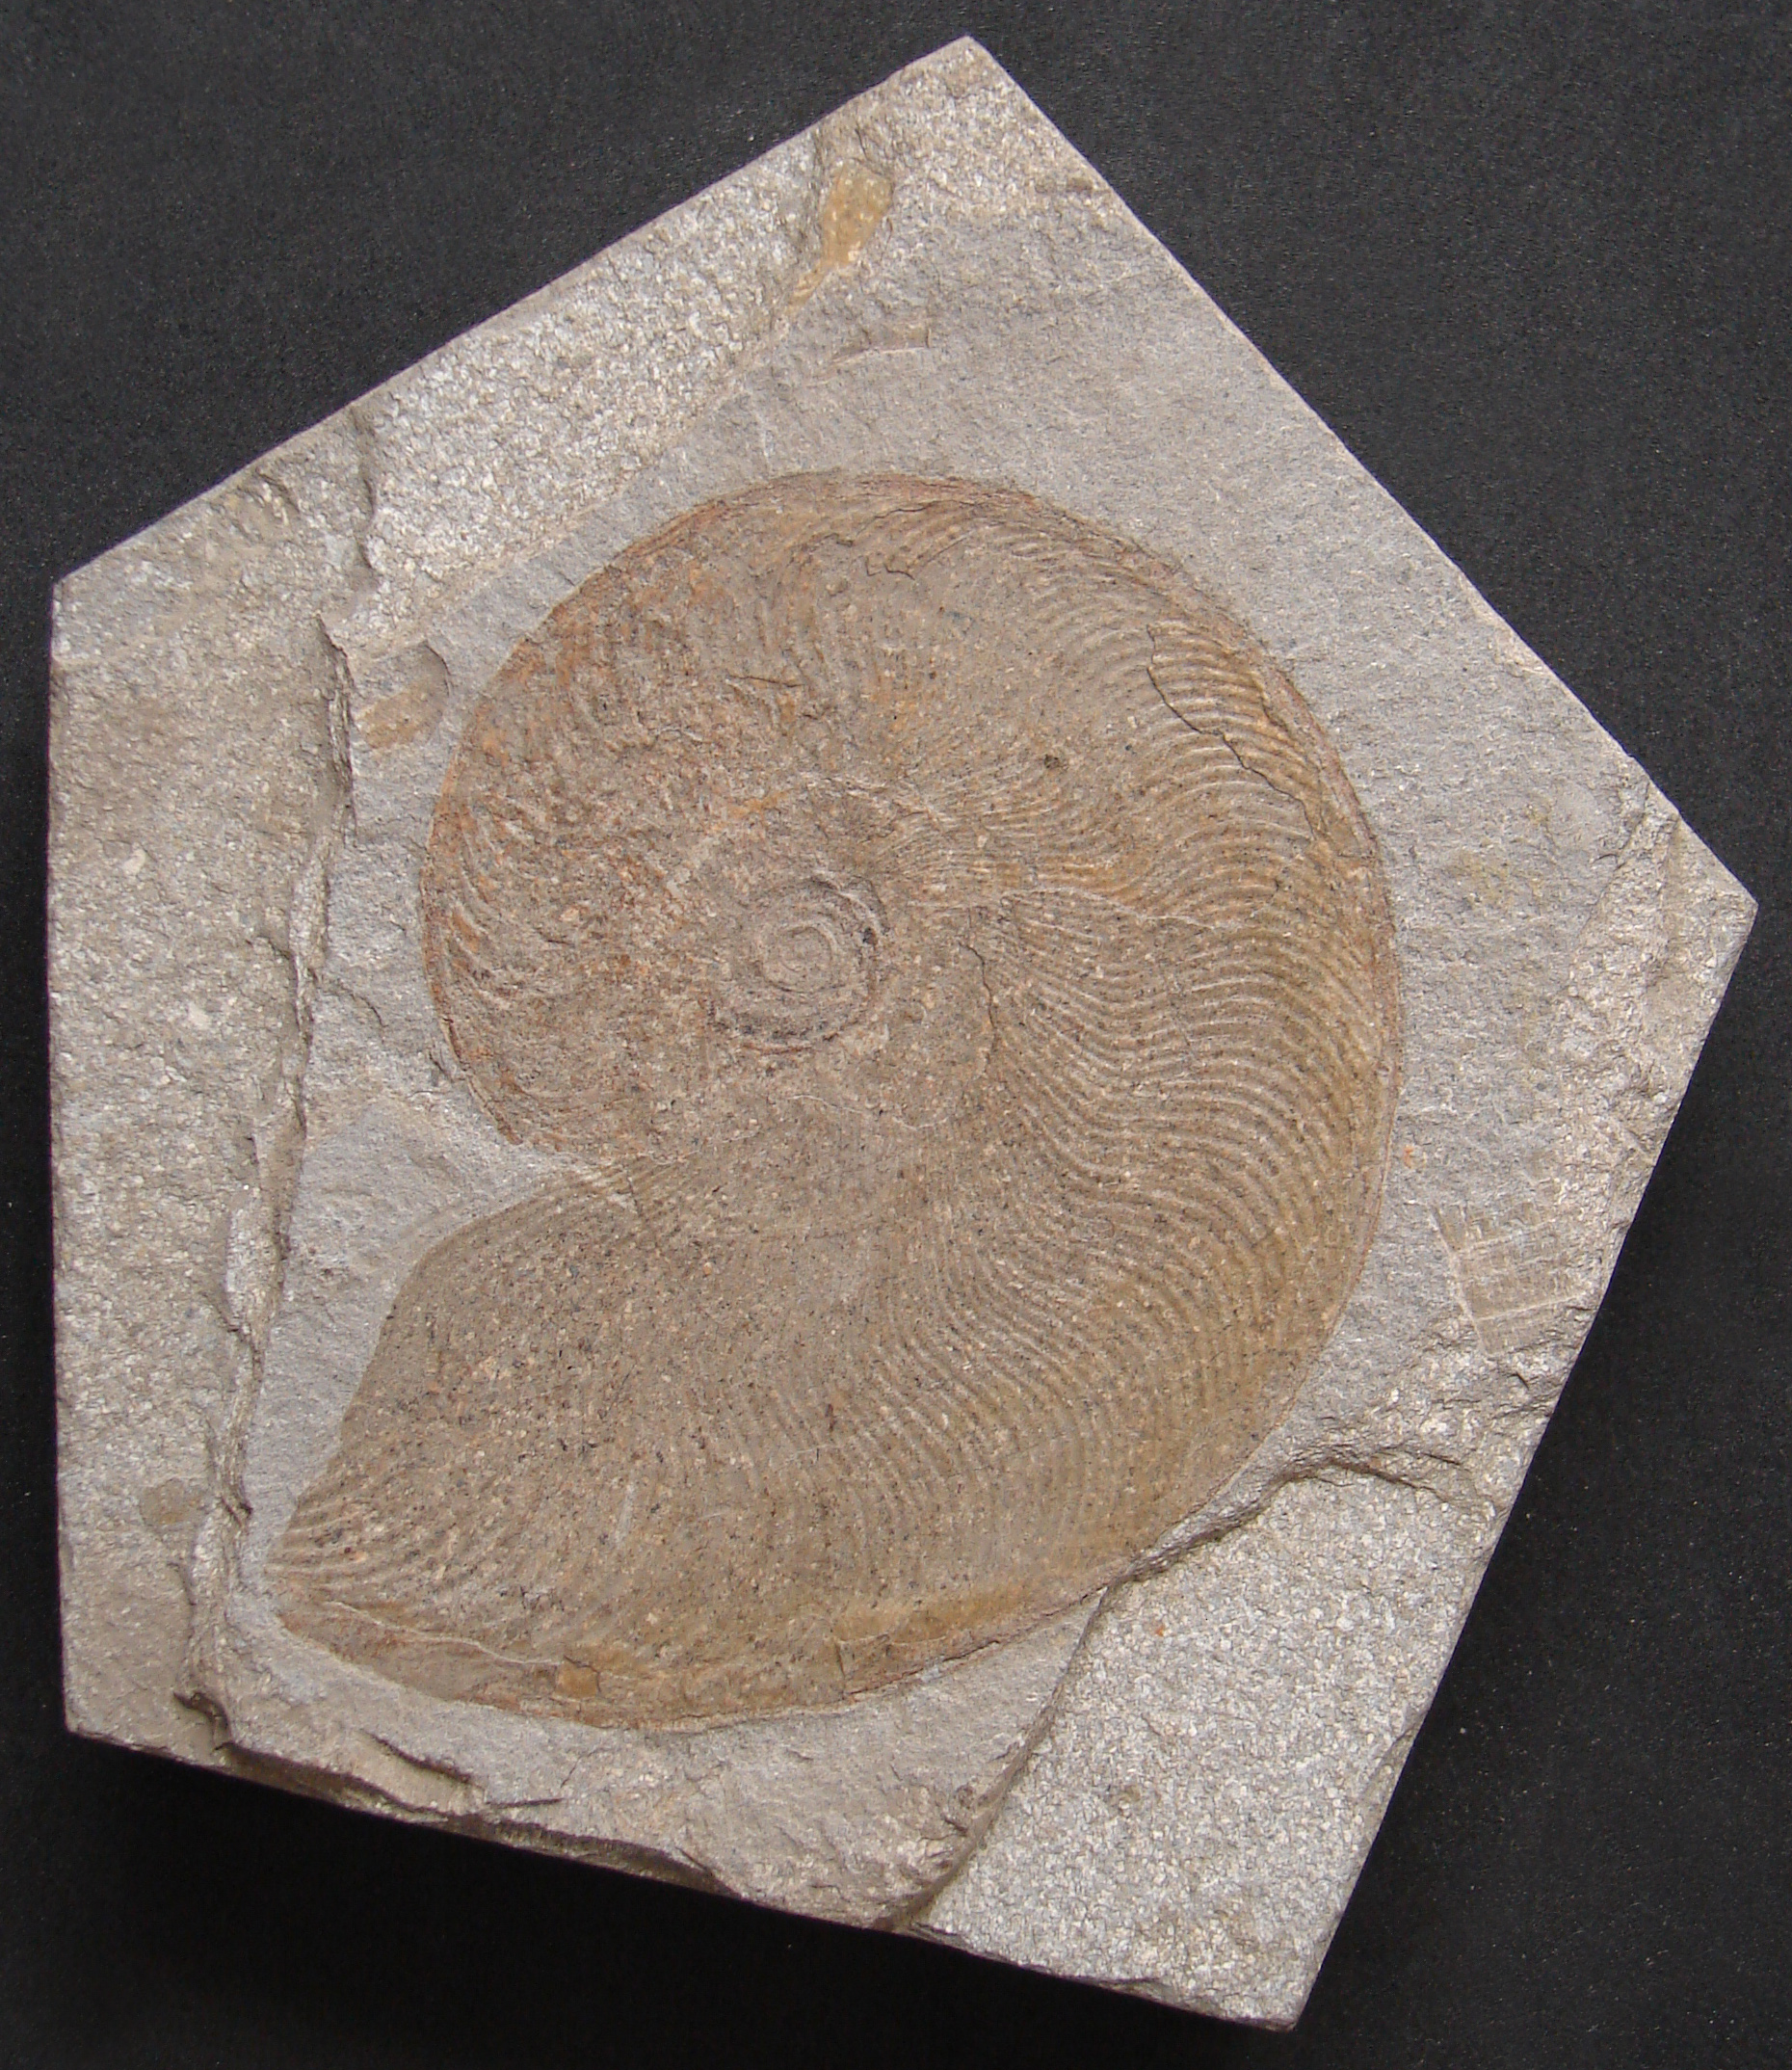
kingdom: Animalia
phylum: Mollusca
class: Cephalopoda
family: Hildoceratidae
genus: Eleganticeras
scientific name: Eleganticeras exaratum
